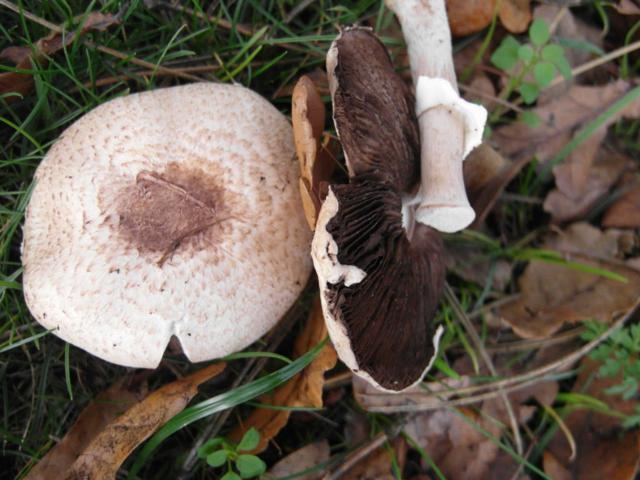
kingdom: Fungi
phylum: Basidiomycota
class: Agaricomycetes
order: Agaricales
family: Agaricaceae
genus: Agaricus
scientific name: Agaricus impudicus
